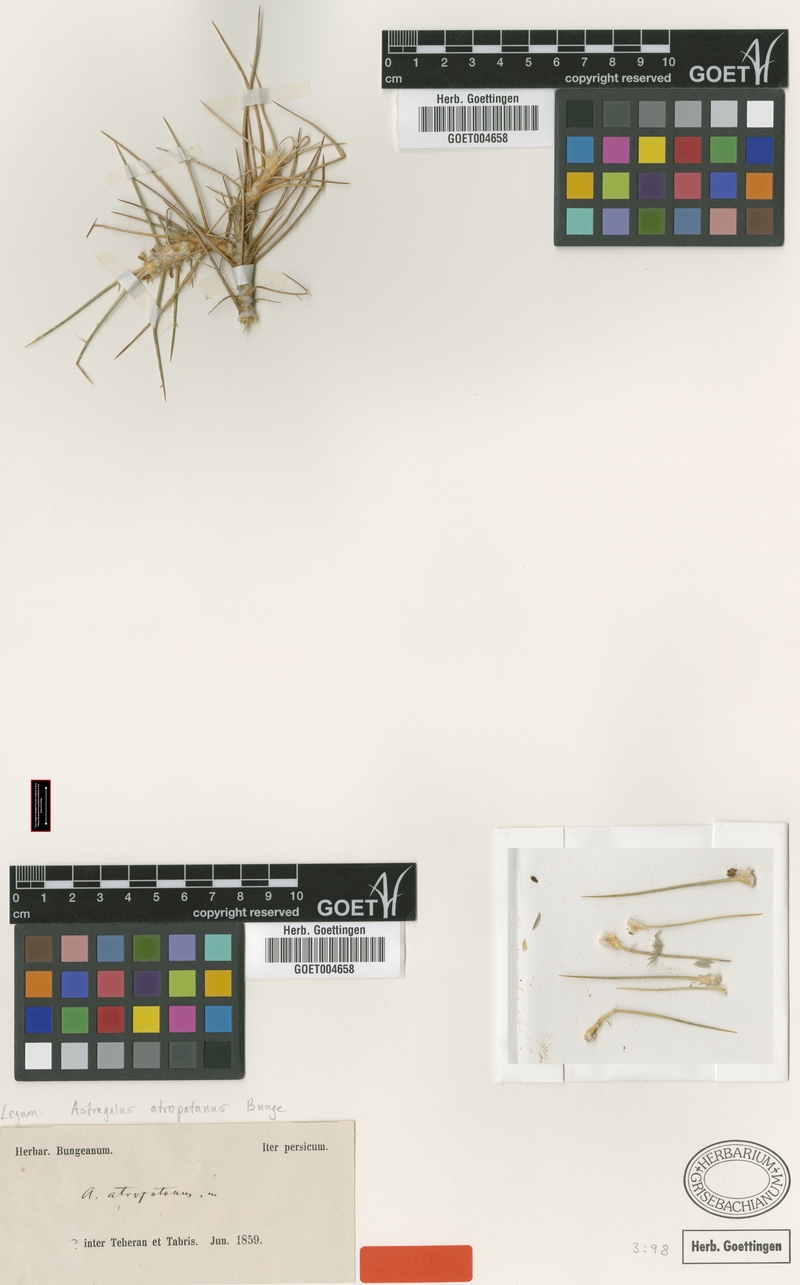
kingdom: Plantae
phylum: Tracheophyta
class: Magnoliopsida
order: Fabales
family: Fabaceae
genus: Astragalus
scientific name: Astragalus singarensis
